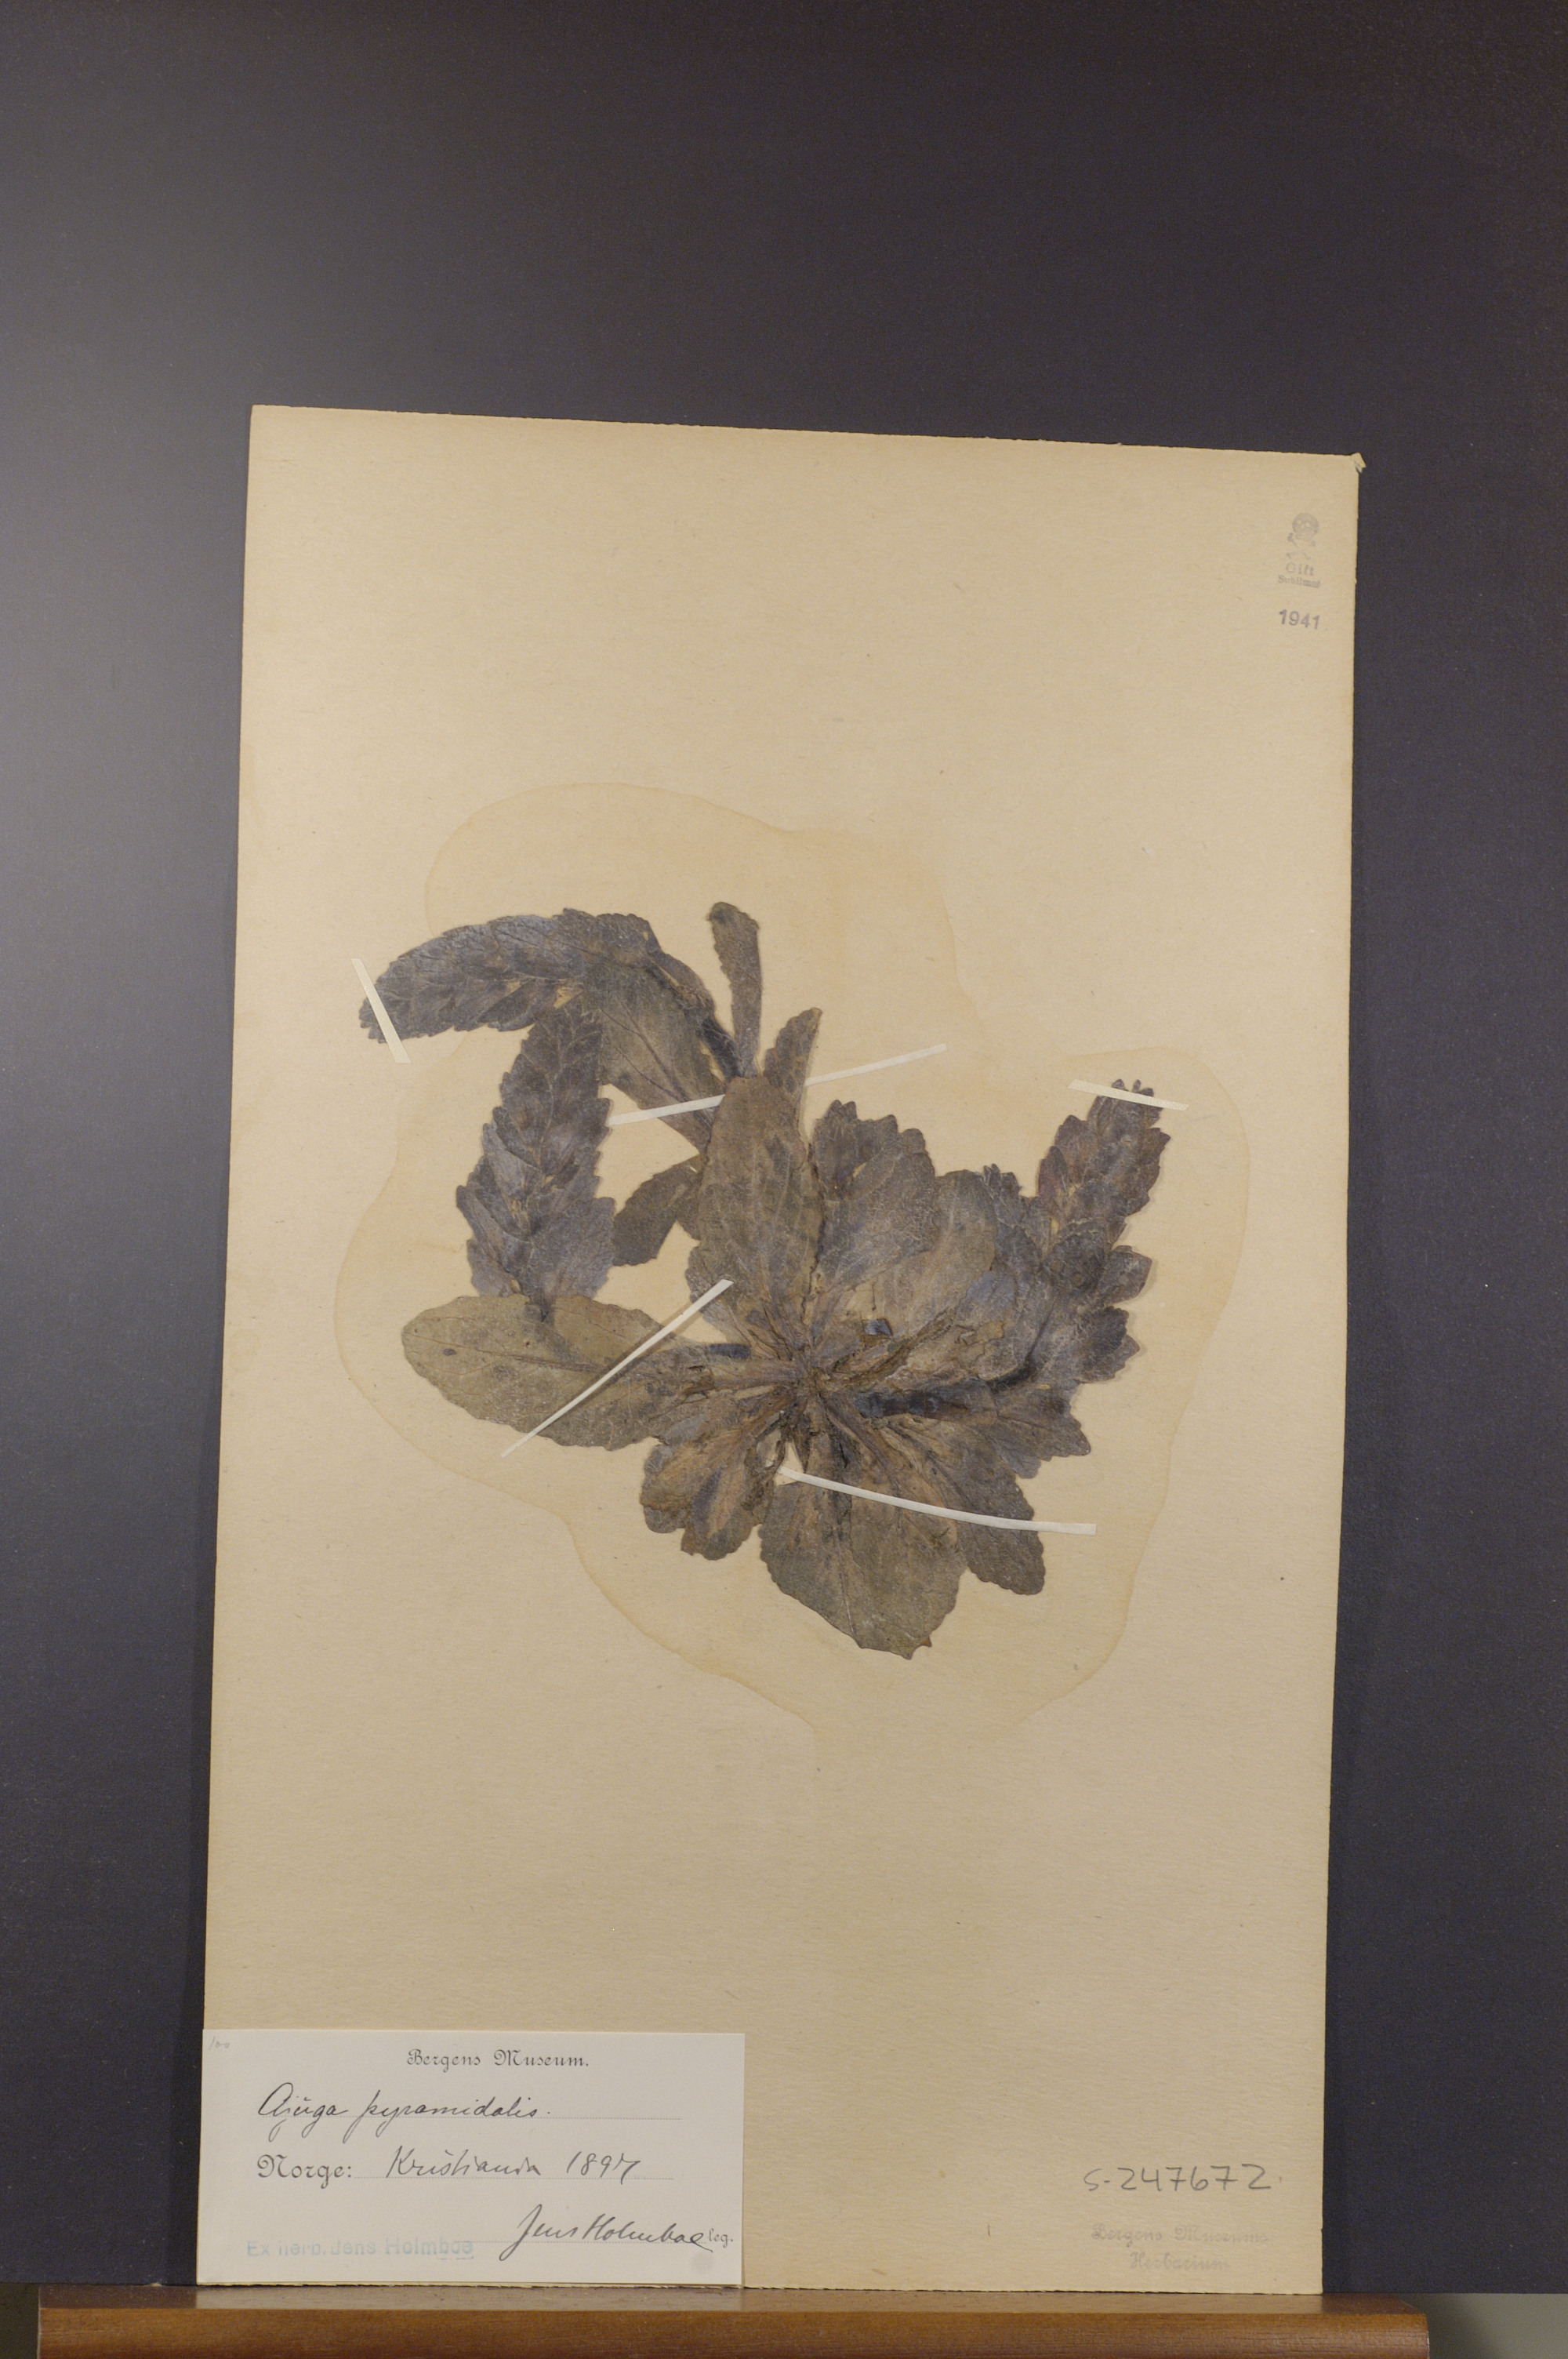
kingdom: Plantae
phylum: Tracheophyta
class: Magnoliopsida
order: Lamiales
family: Lamiaceae
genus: Ajuga
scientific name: Ajuga pyramidalis
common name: Pyramid bugle
